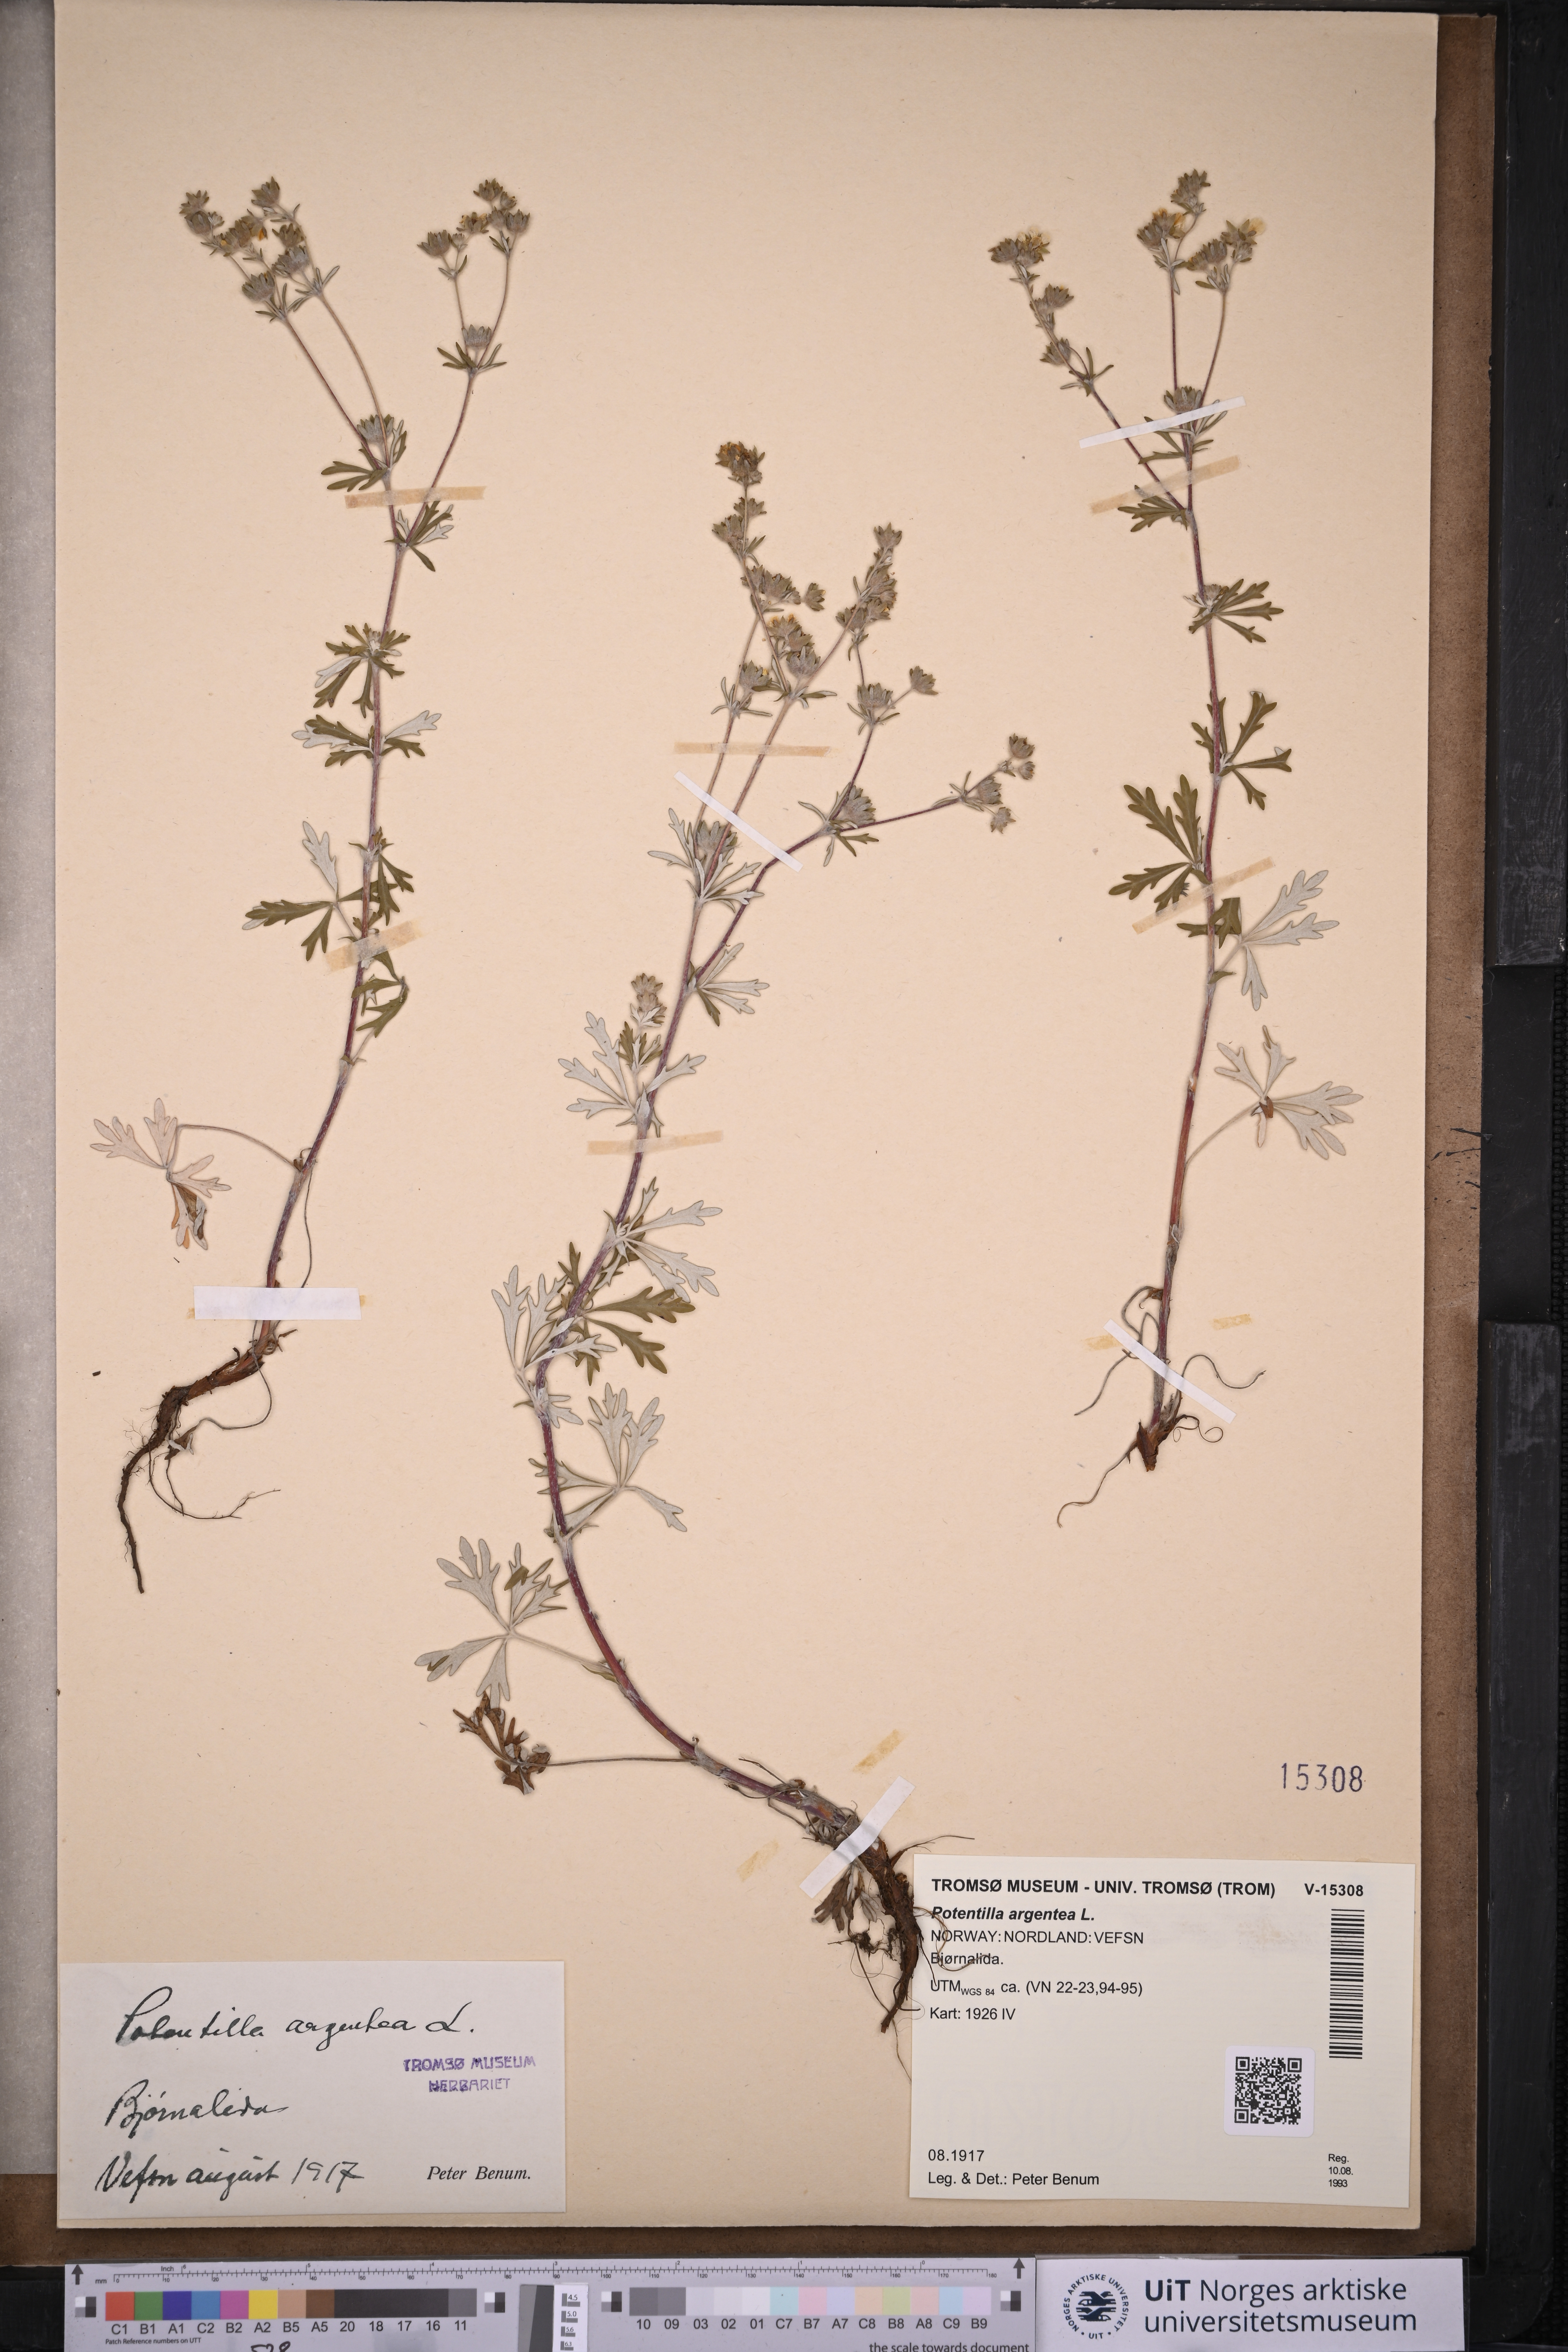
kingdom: Plantae
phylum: Tracheophyta
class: Magnoliopsida
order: Rosales
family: Rosaceae
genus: Potentilla
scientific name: Potentilla argentea
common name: Hoary cinquefoil
